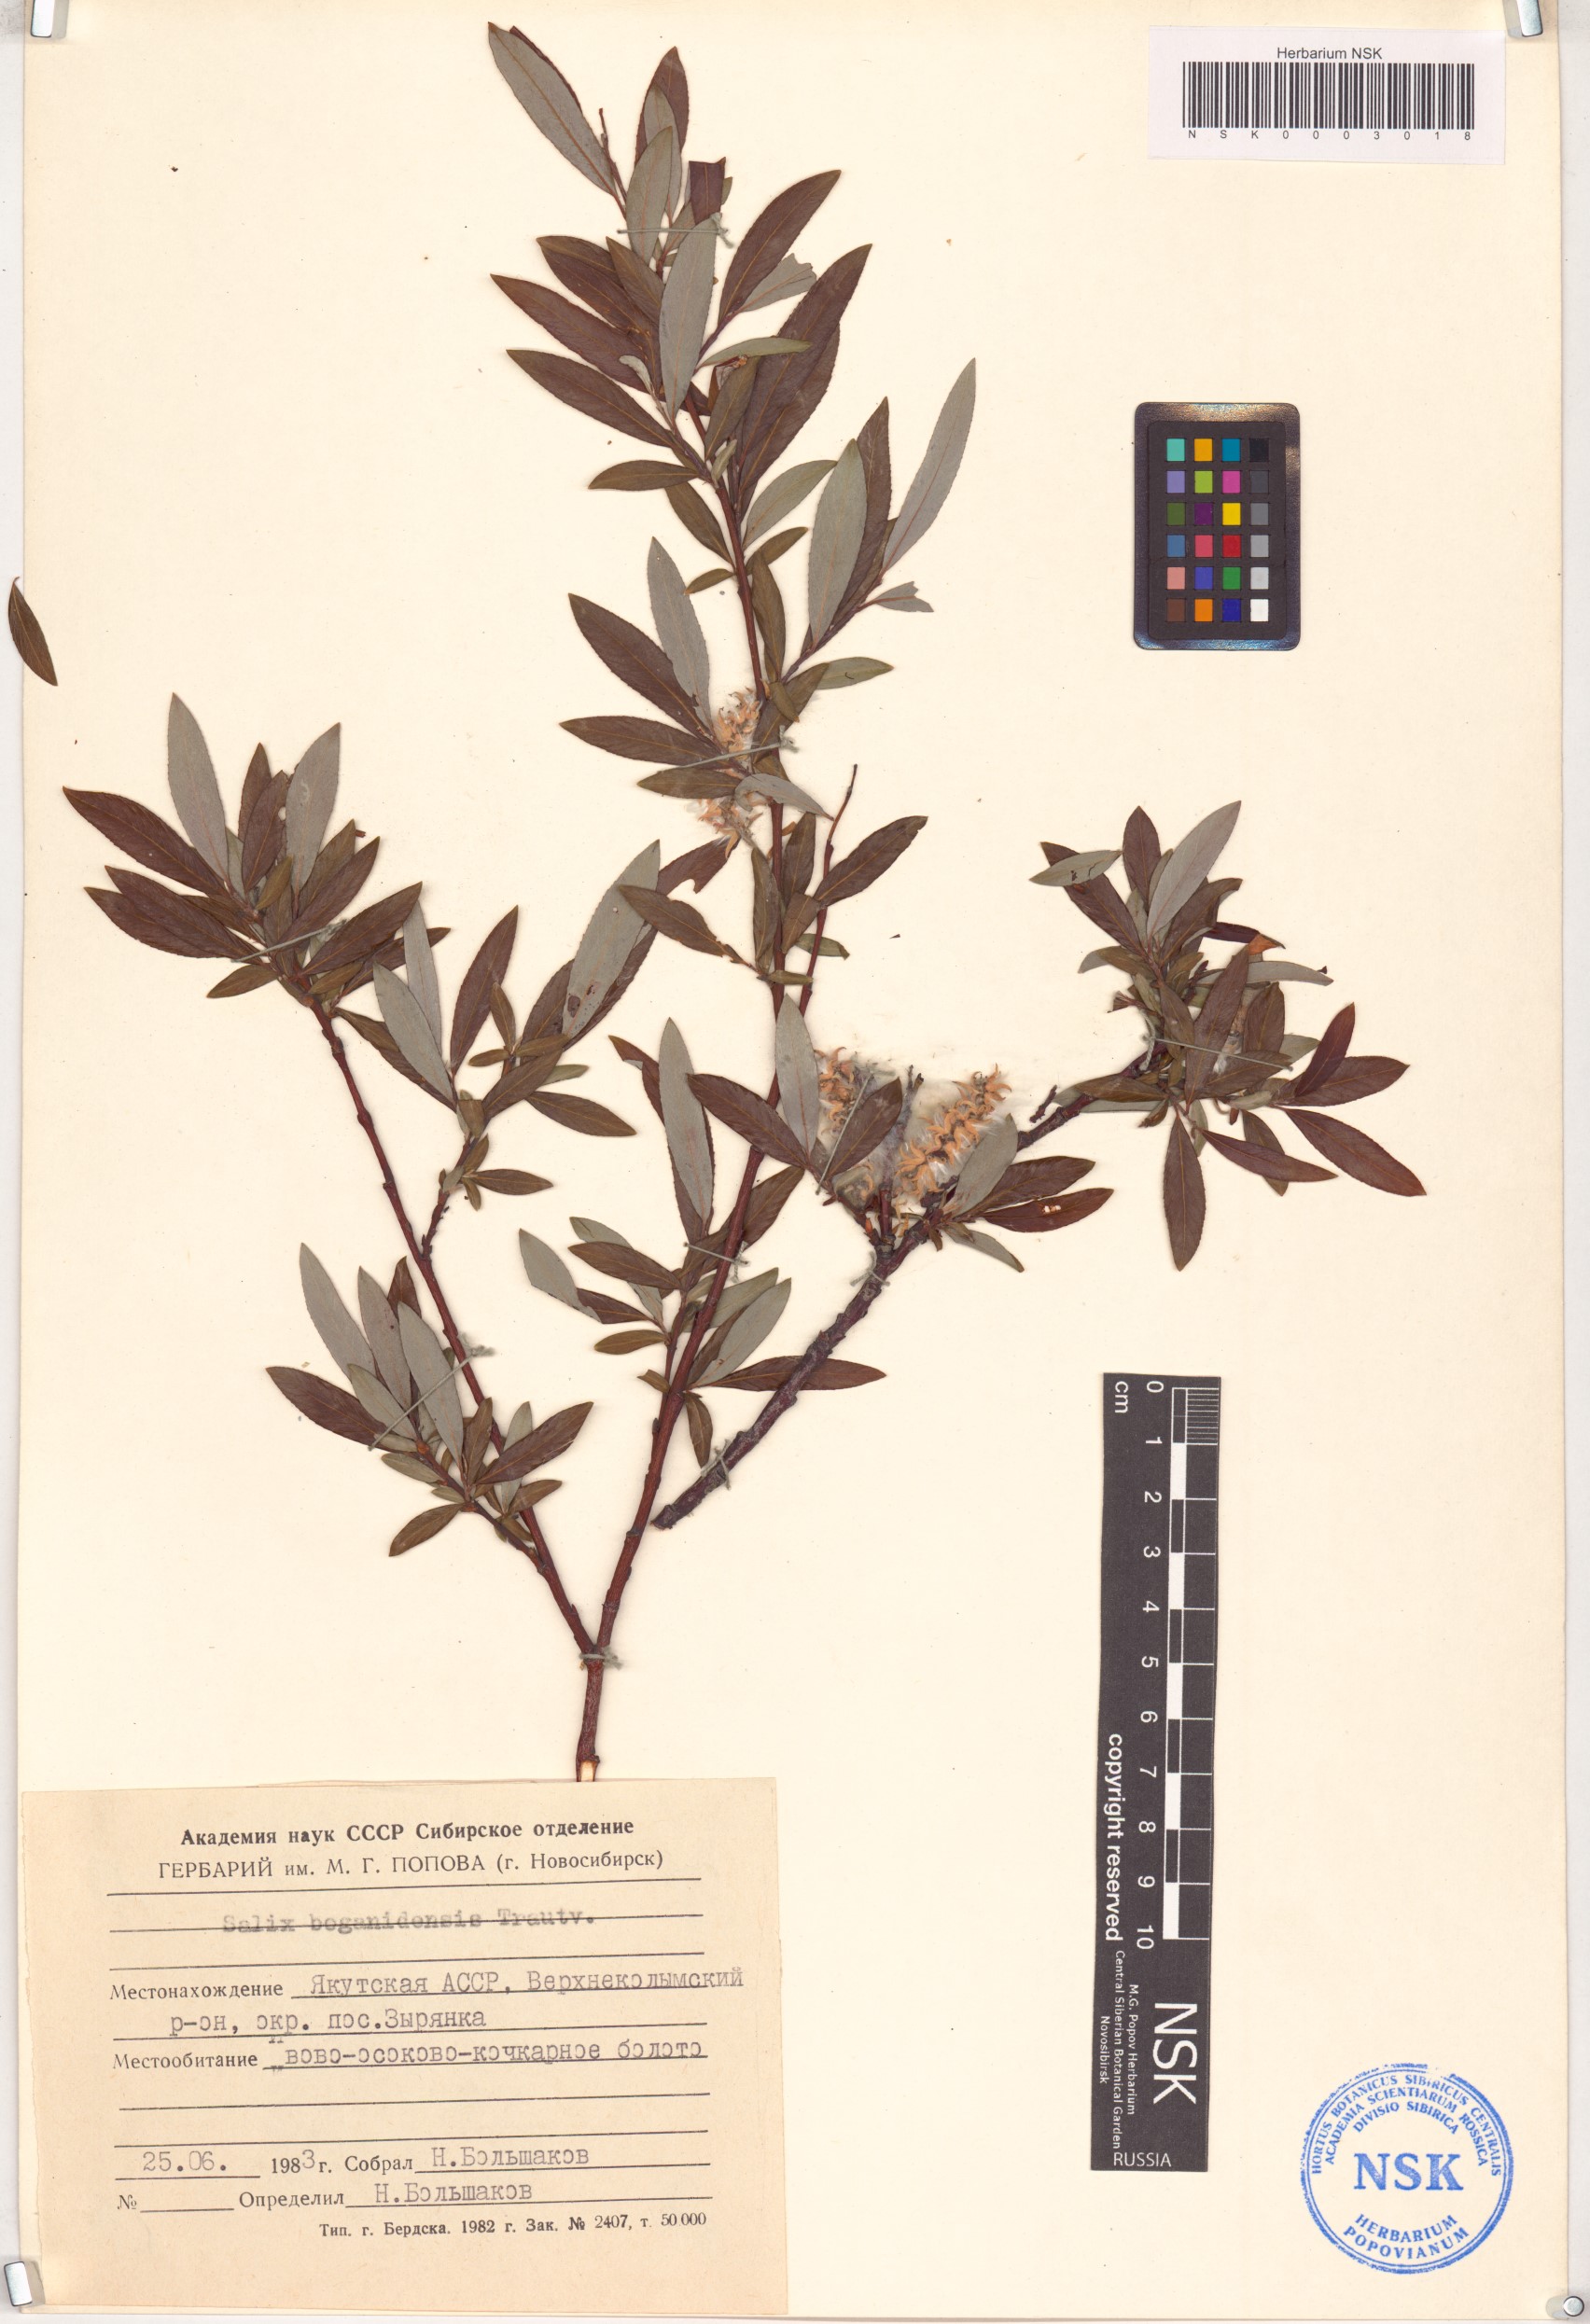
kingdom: Plantae
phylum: Tracheophyta
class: Magnoliopsida
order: Malpighiales
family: Salicaceae
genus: Salix
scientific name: Salix boganidensis
